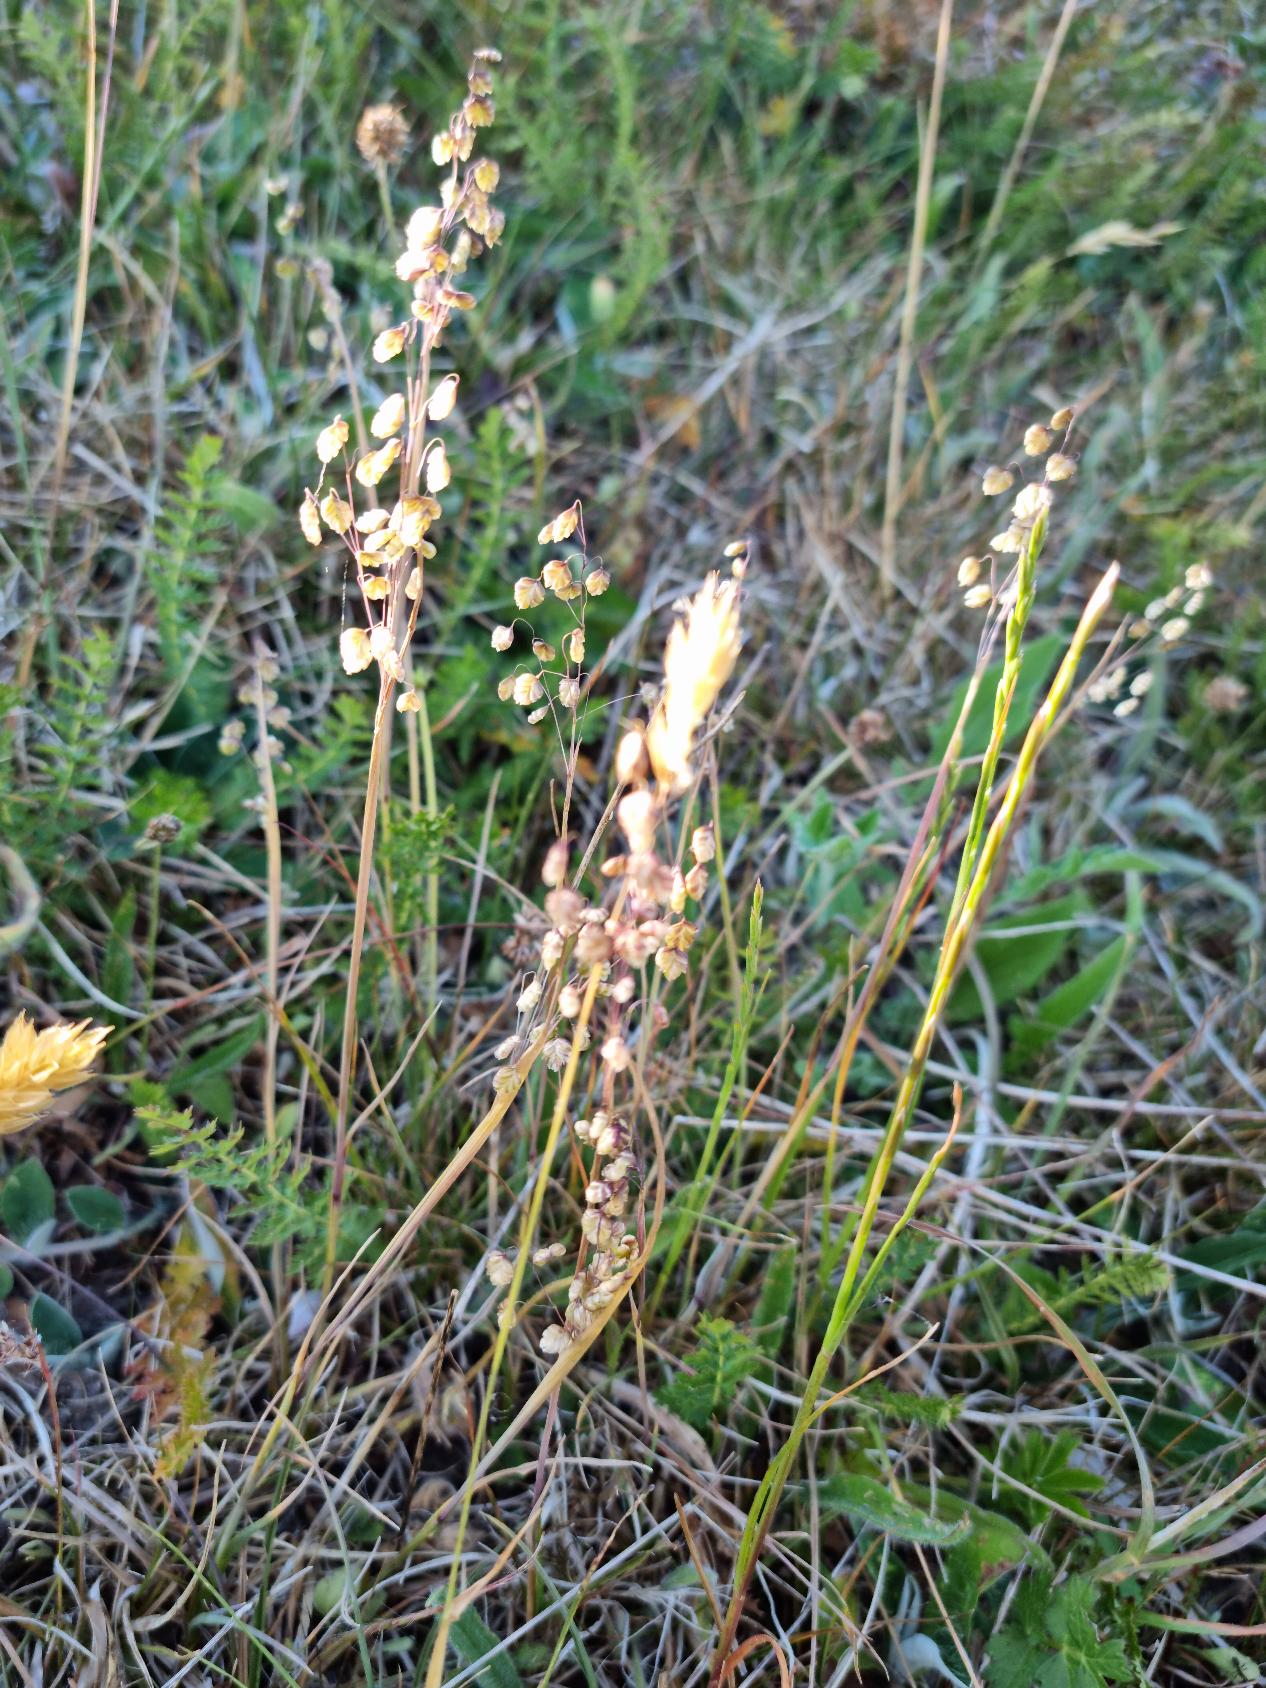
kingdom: Plantae
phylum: Tracheophyta
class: Liliopsida
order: Poales
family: Poaceae
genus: Briza
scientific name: Briza media
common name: Hjertegræs
